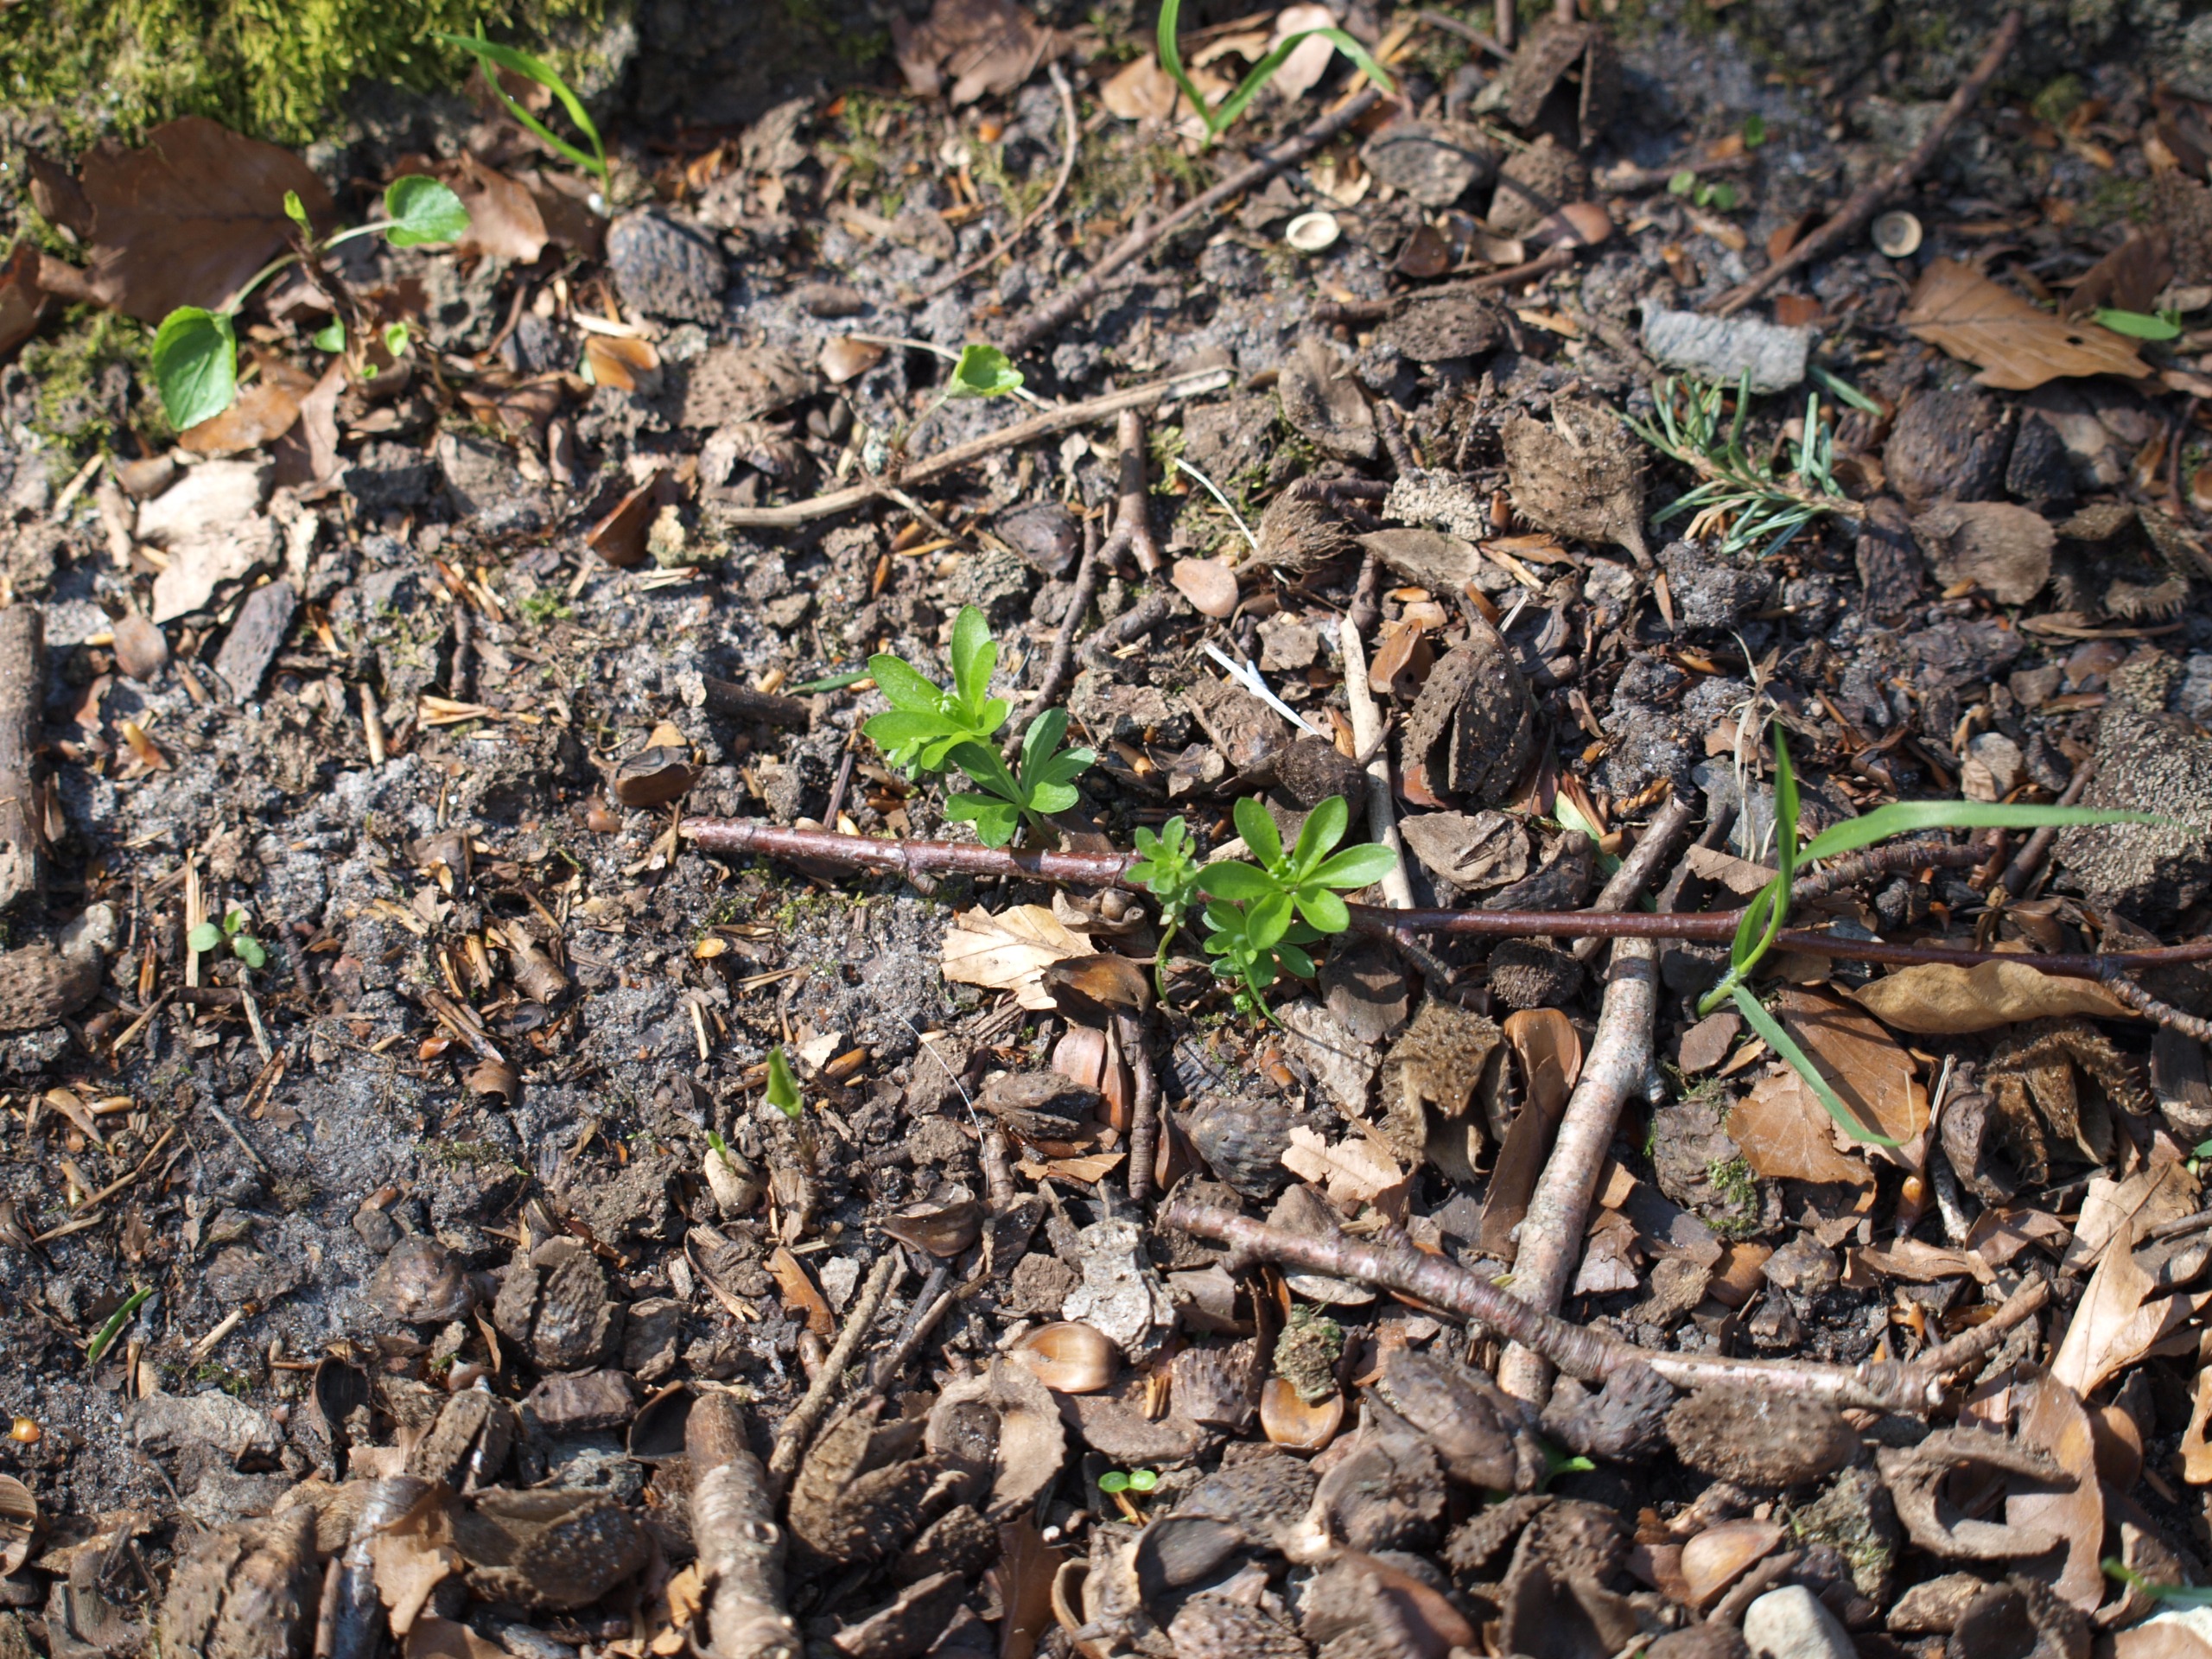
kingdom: Plantae
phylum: Tracheophyta
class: Magnoliopsida
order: Gentianales
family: Rubiaceae
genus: Galium
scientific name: Galium odoratum
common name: Skovmærke
